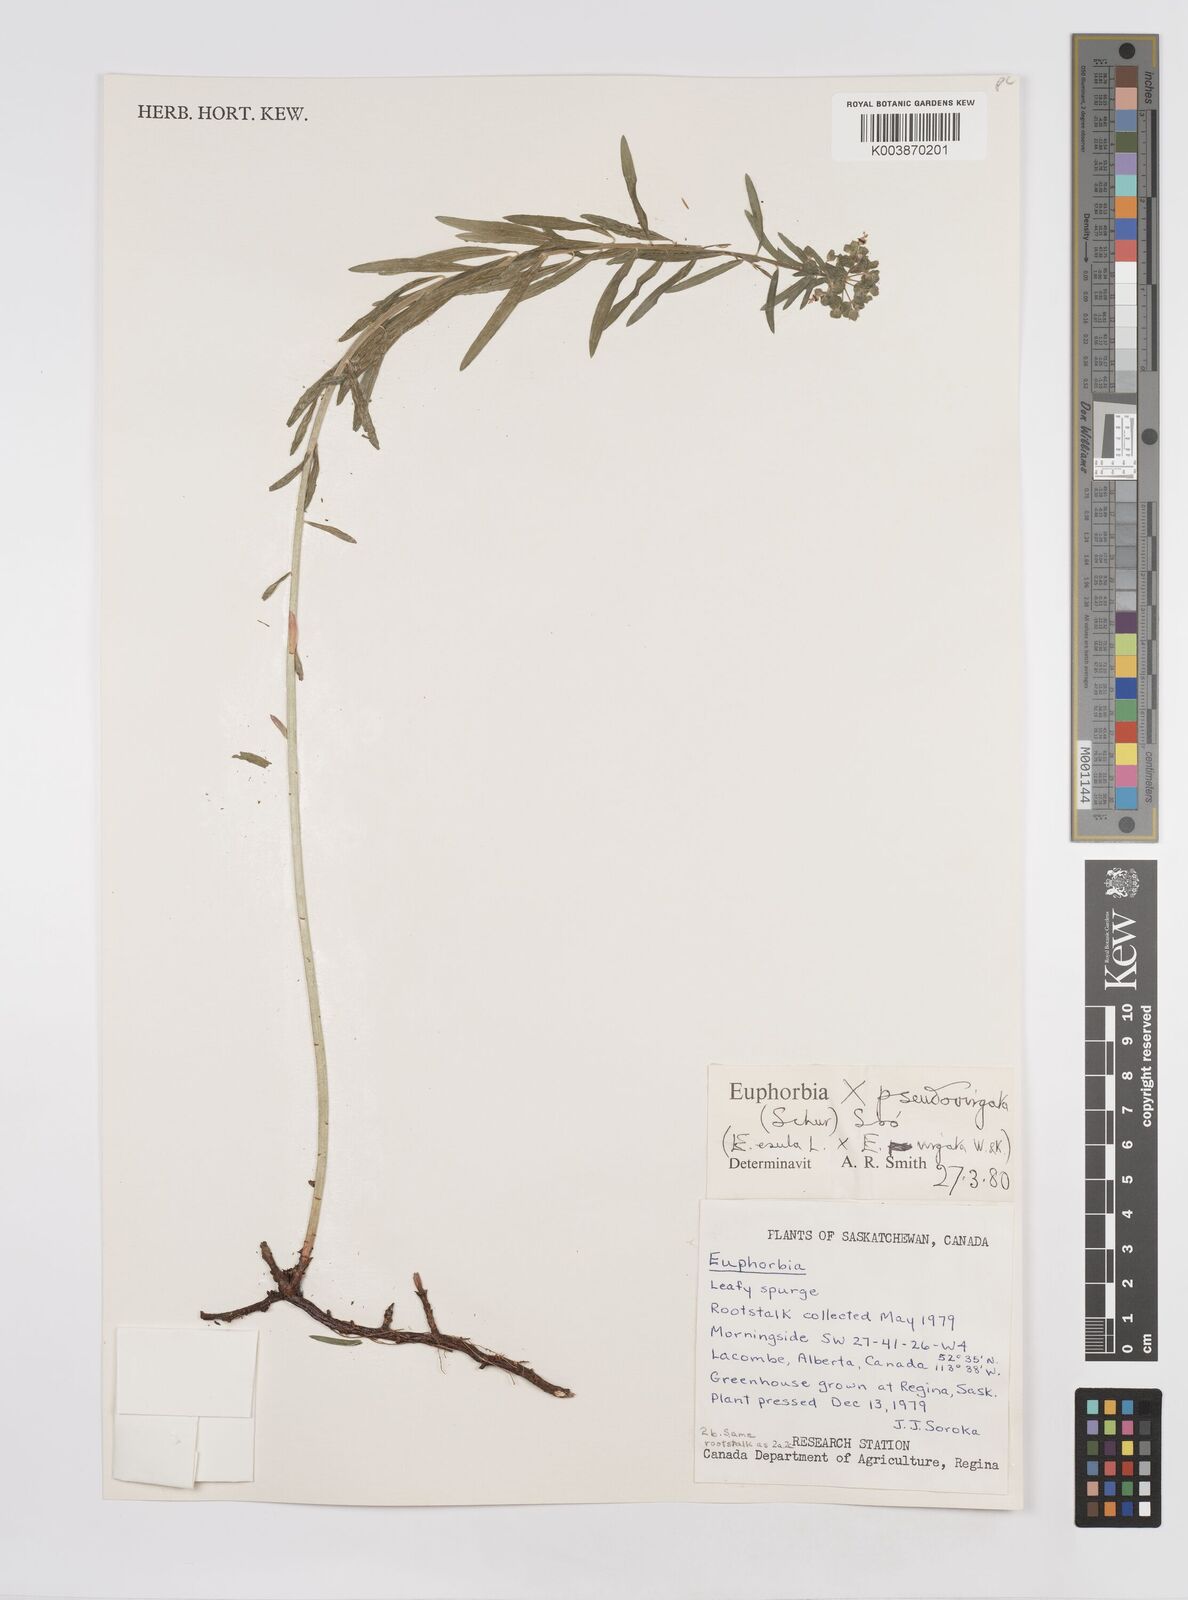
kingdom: Plantae
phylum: Tracheophyta
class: Magnoliopsida
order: Malpighiales
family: Euphorbiaceae
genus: Euphorbia
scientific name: Euphorbia virgata
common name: Leafy spurge
